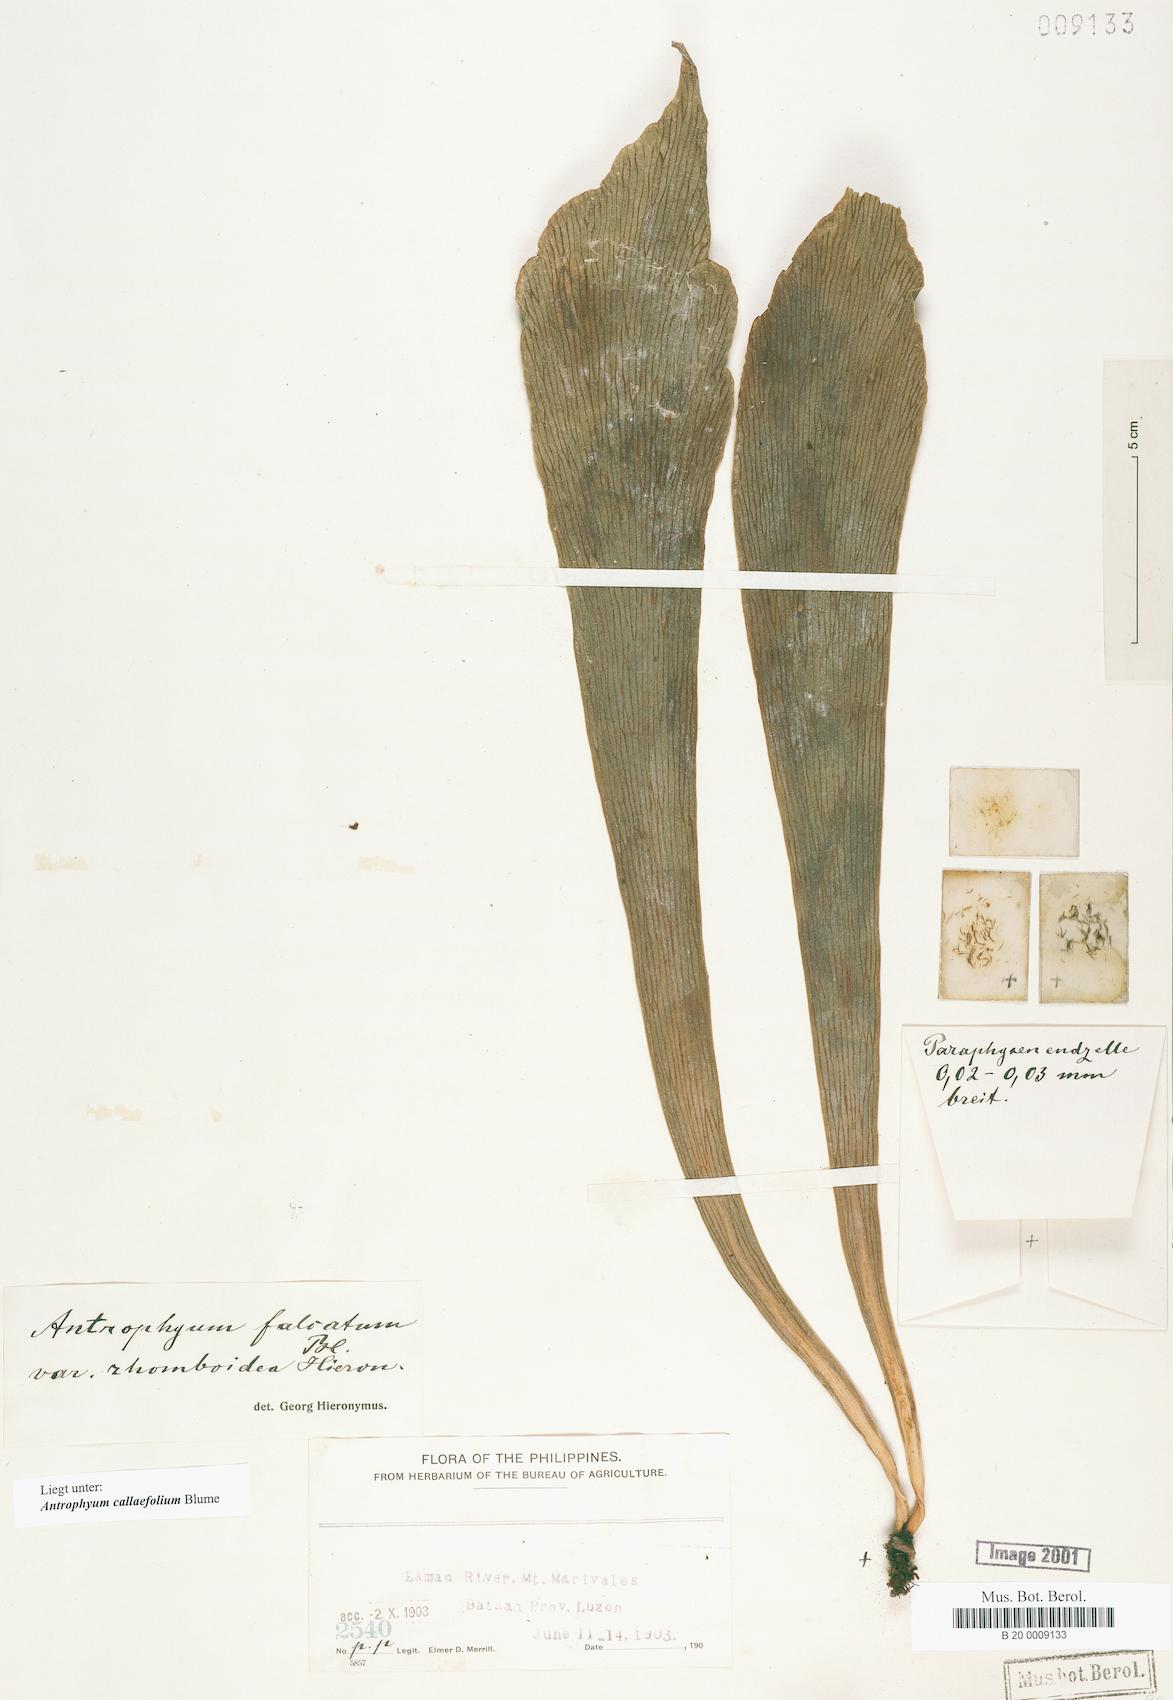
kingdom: Plantae
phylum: Tracheophyta
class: Polypodiopsida
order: Polypodiales
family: Pteridaceae
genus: Antrophyum
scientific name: Antrophyum callifolium
